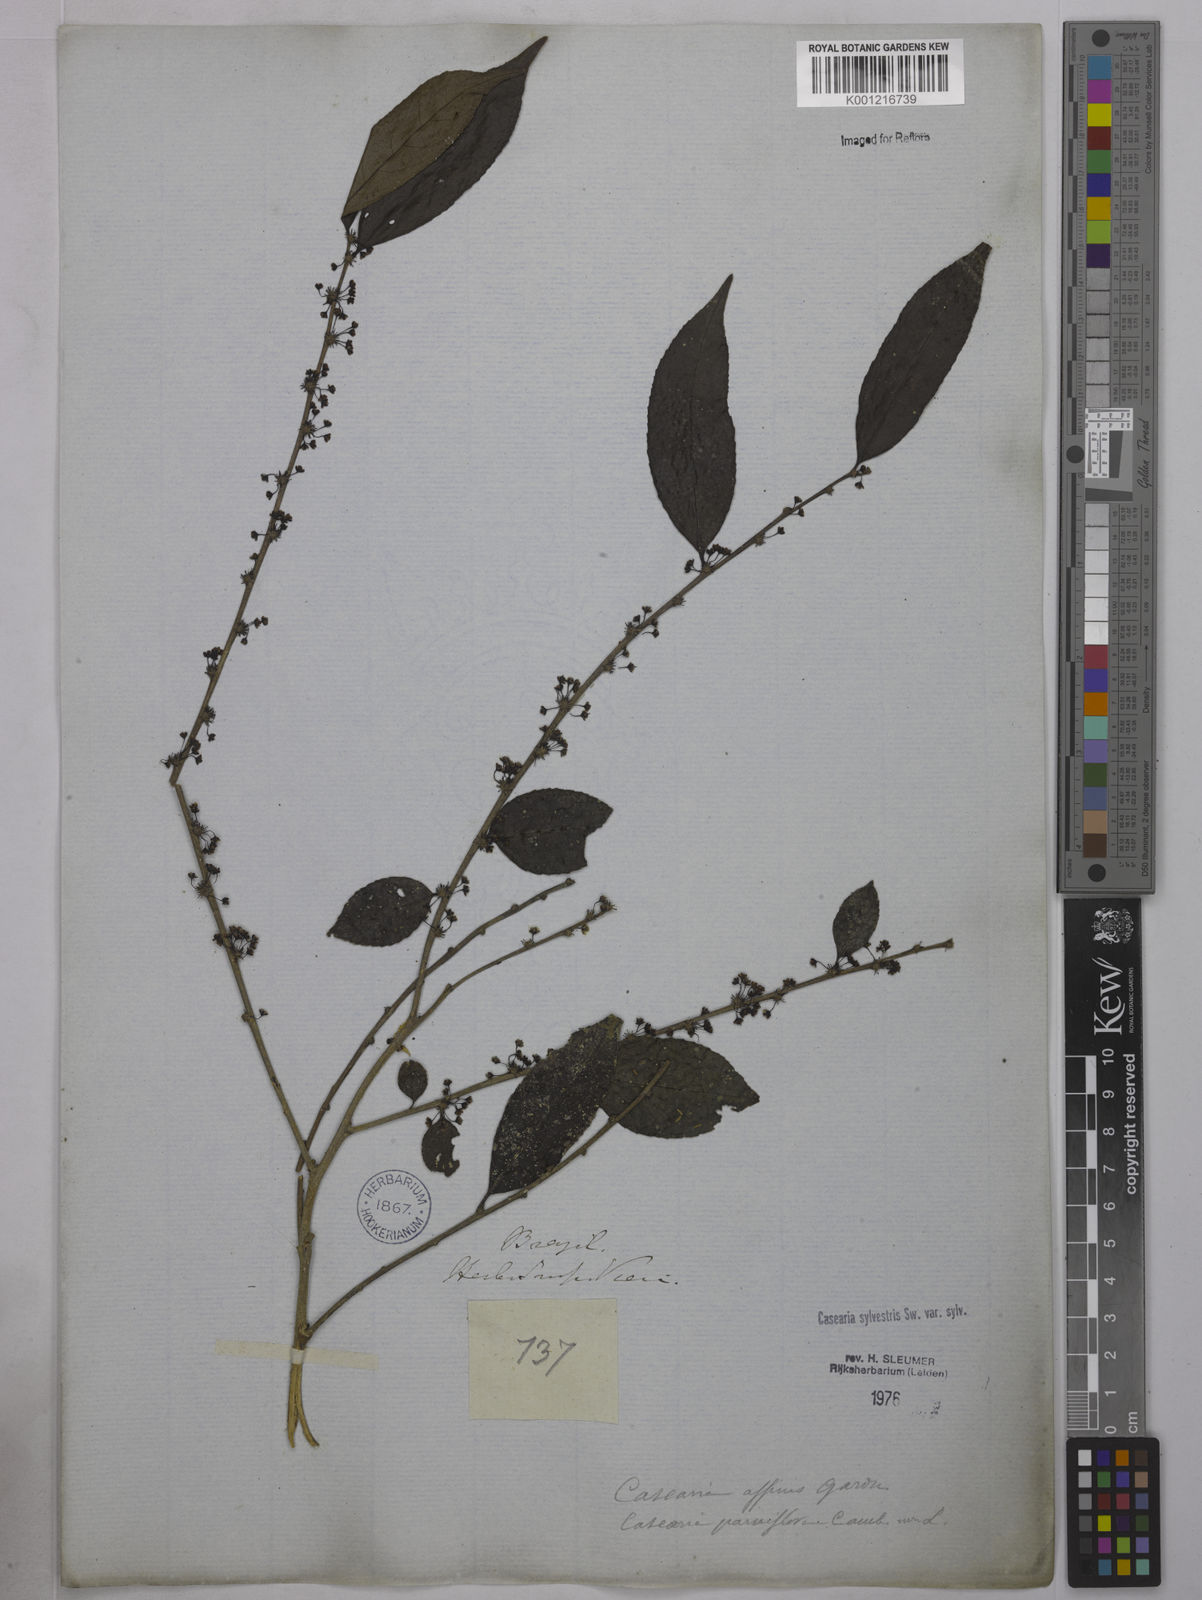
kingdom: Plantae
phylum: Tracheophyta
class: Magnoliopsida
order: Malpighiales
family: Salicaceae
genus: Casearia
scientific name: Casearia sylvestris
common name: Wild sage
